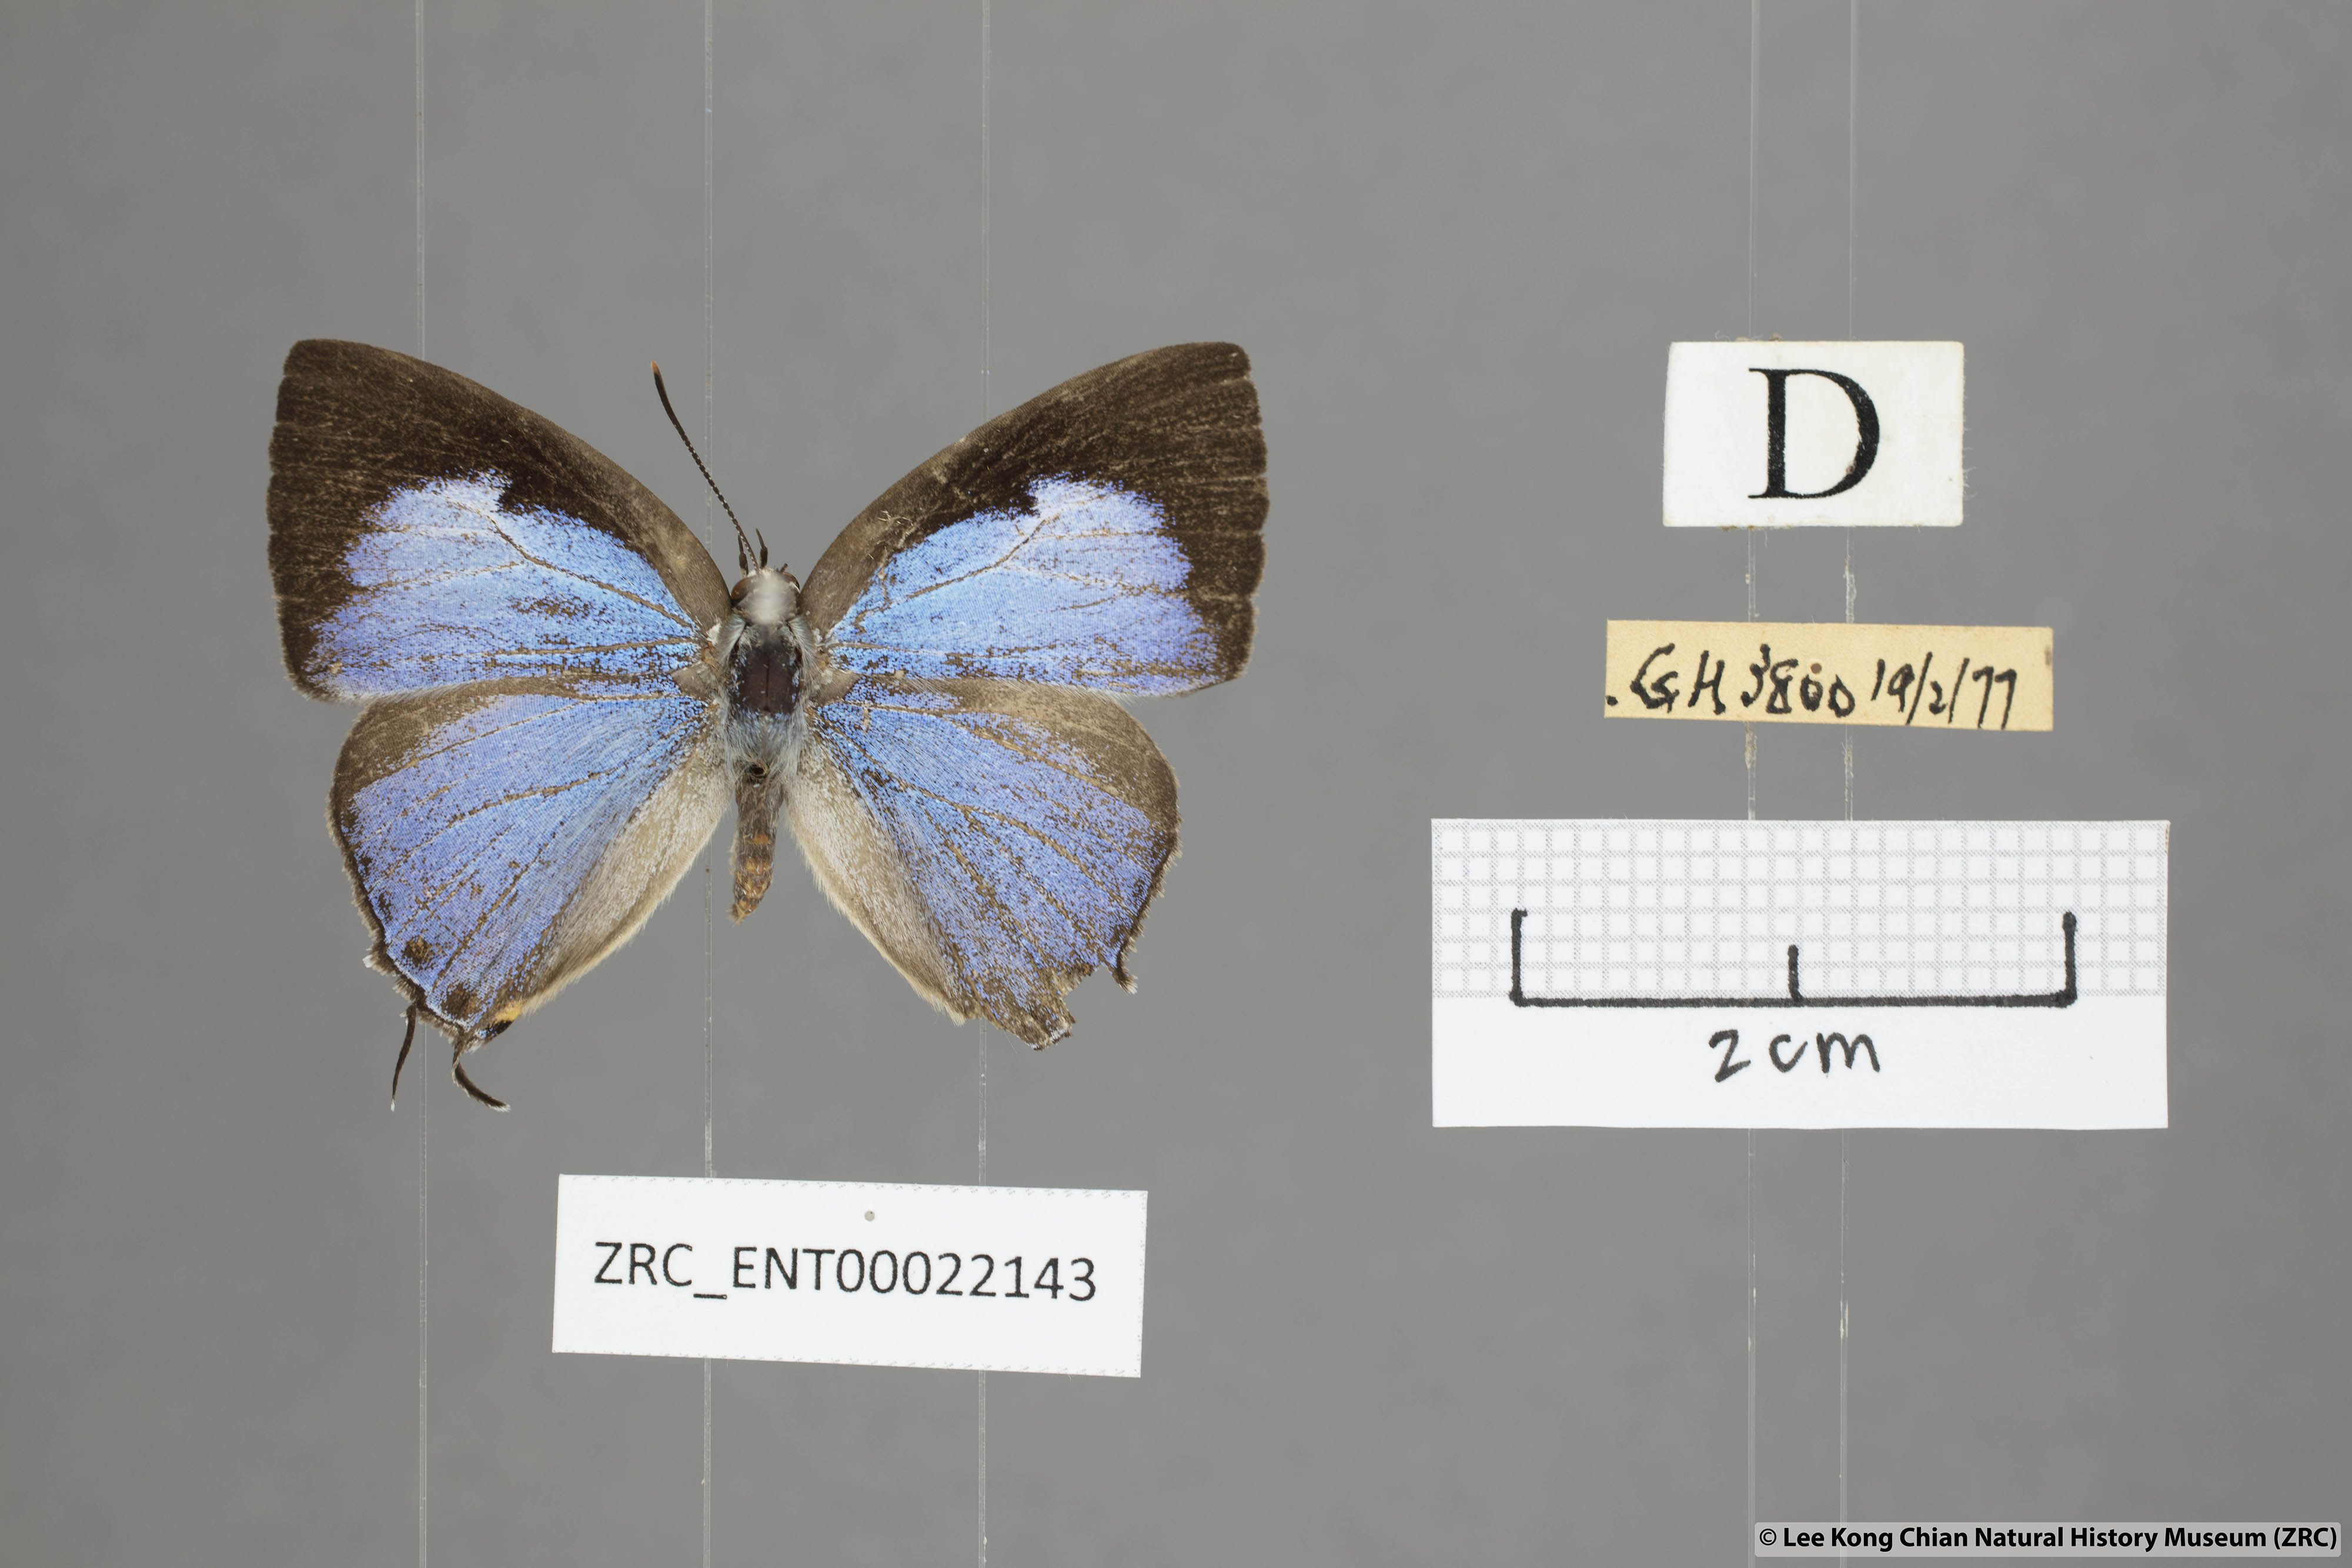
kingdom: Animalia
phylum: Arthropoda
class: Insecta
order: Lepidoptera
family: Lycaenidae
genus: Tajuria
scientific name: Tajuria albiplaga
